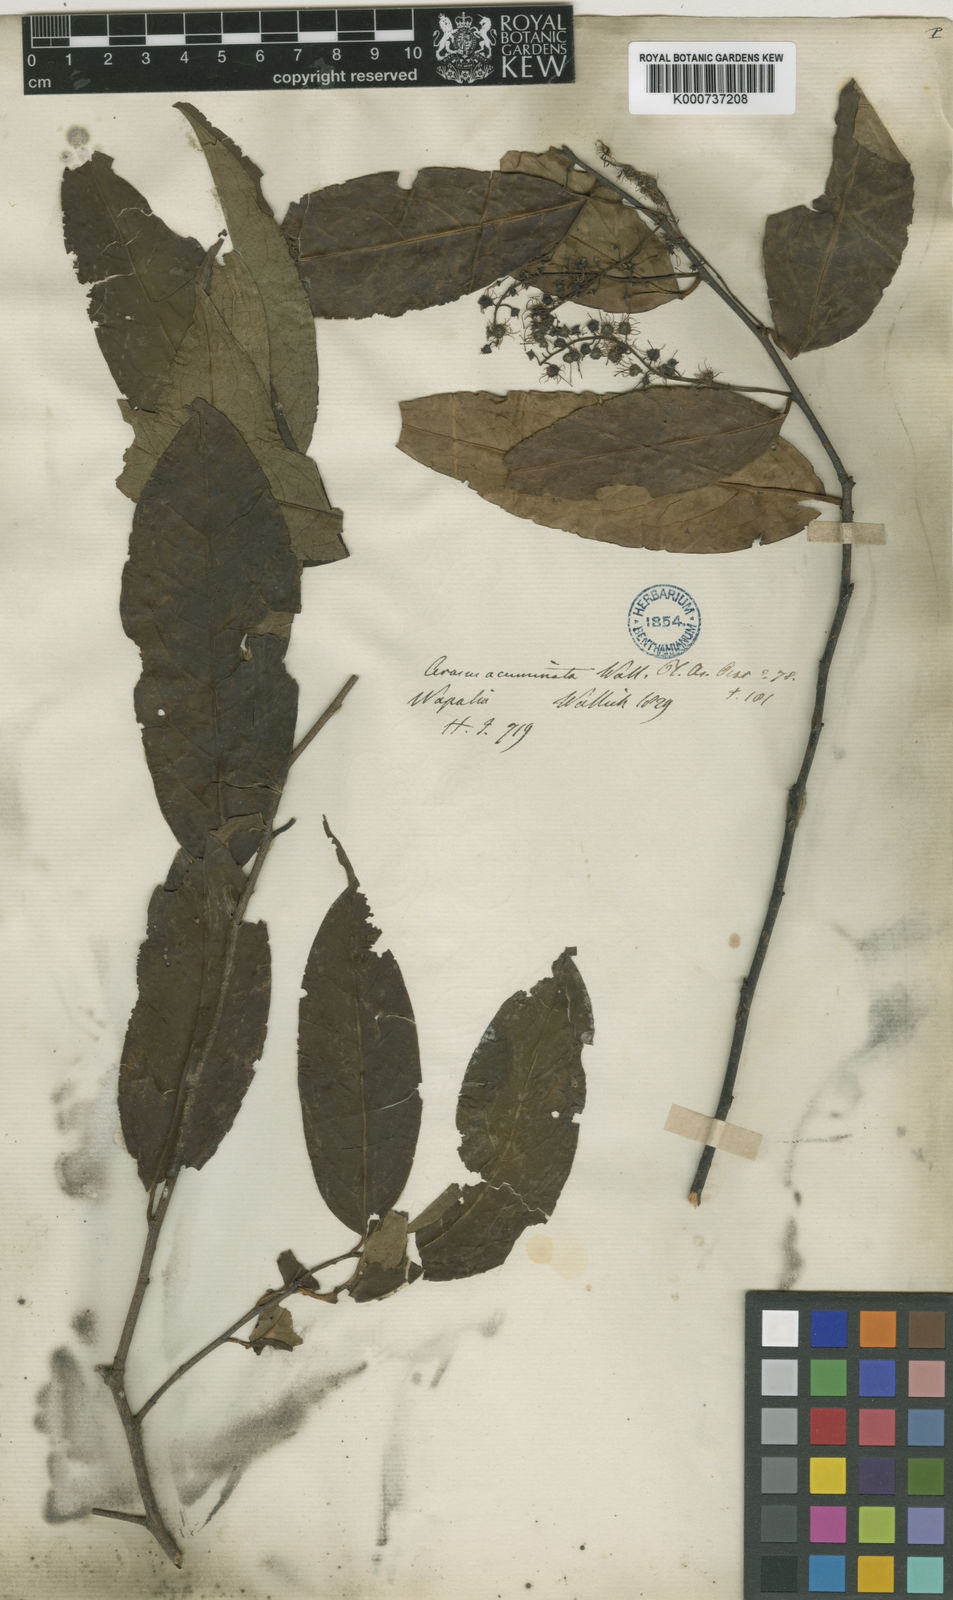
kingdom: Plantae
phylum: Tracheophyta
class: Magnoliopsida
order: Rosales
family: Rosaceae
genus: Prunus
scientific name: Prunus undulata
